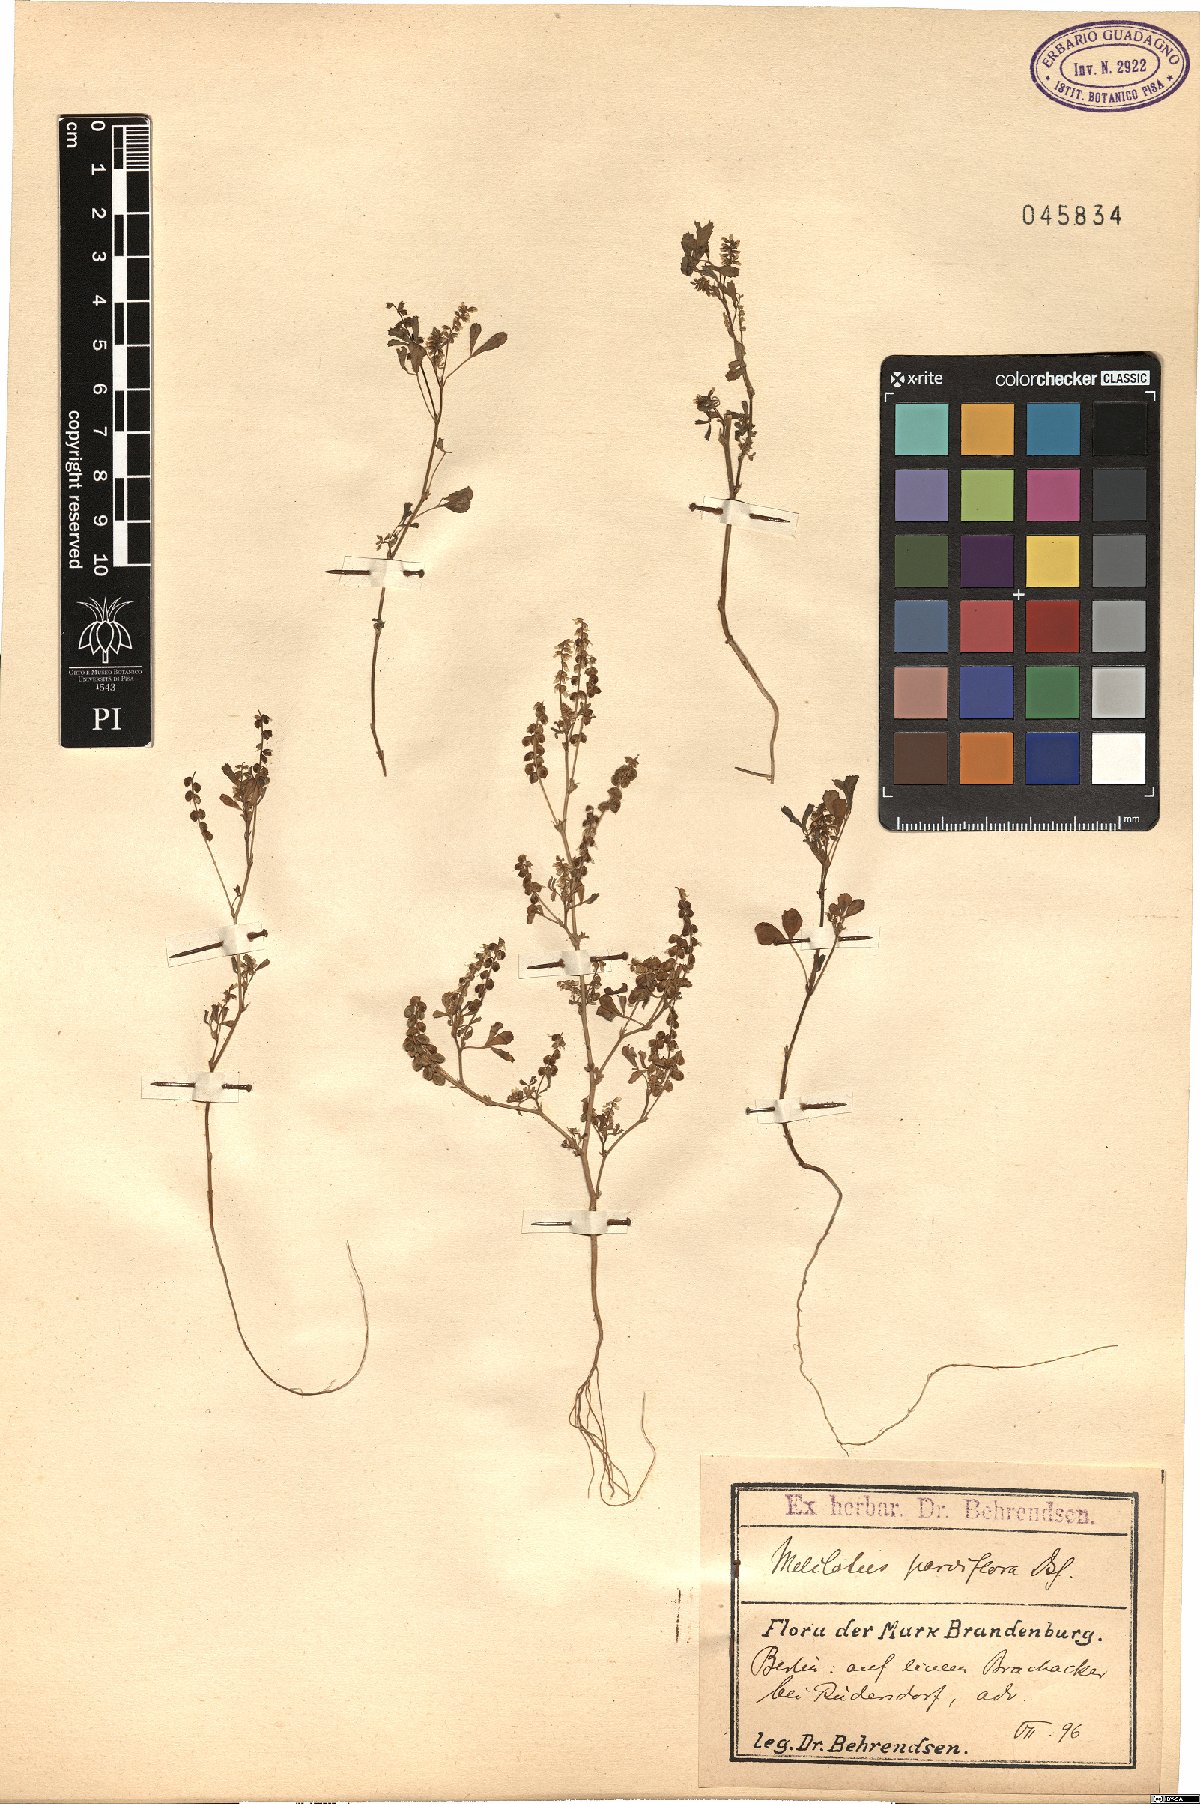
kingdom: Plantae
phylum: Tracheophyta
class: Magnoliopsida
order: Fabales
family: Fabaceae
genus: Melilotus
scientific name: Melilotus indicus
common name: Small melilot
